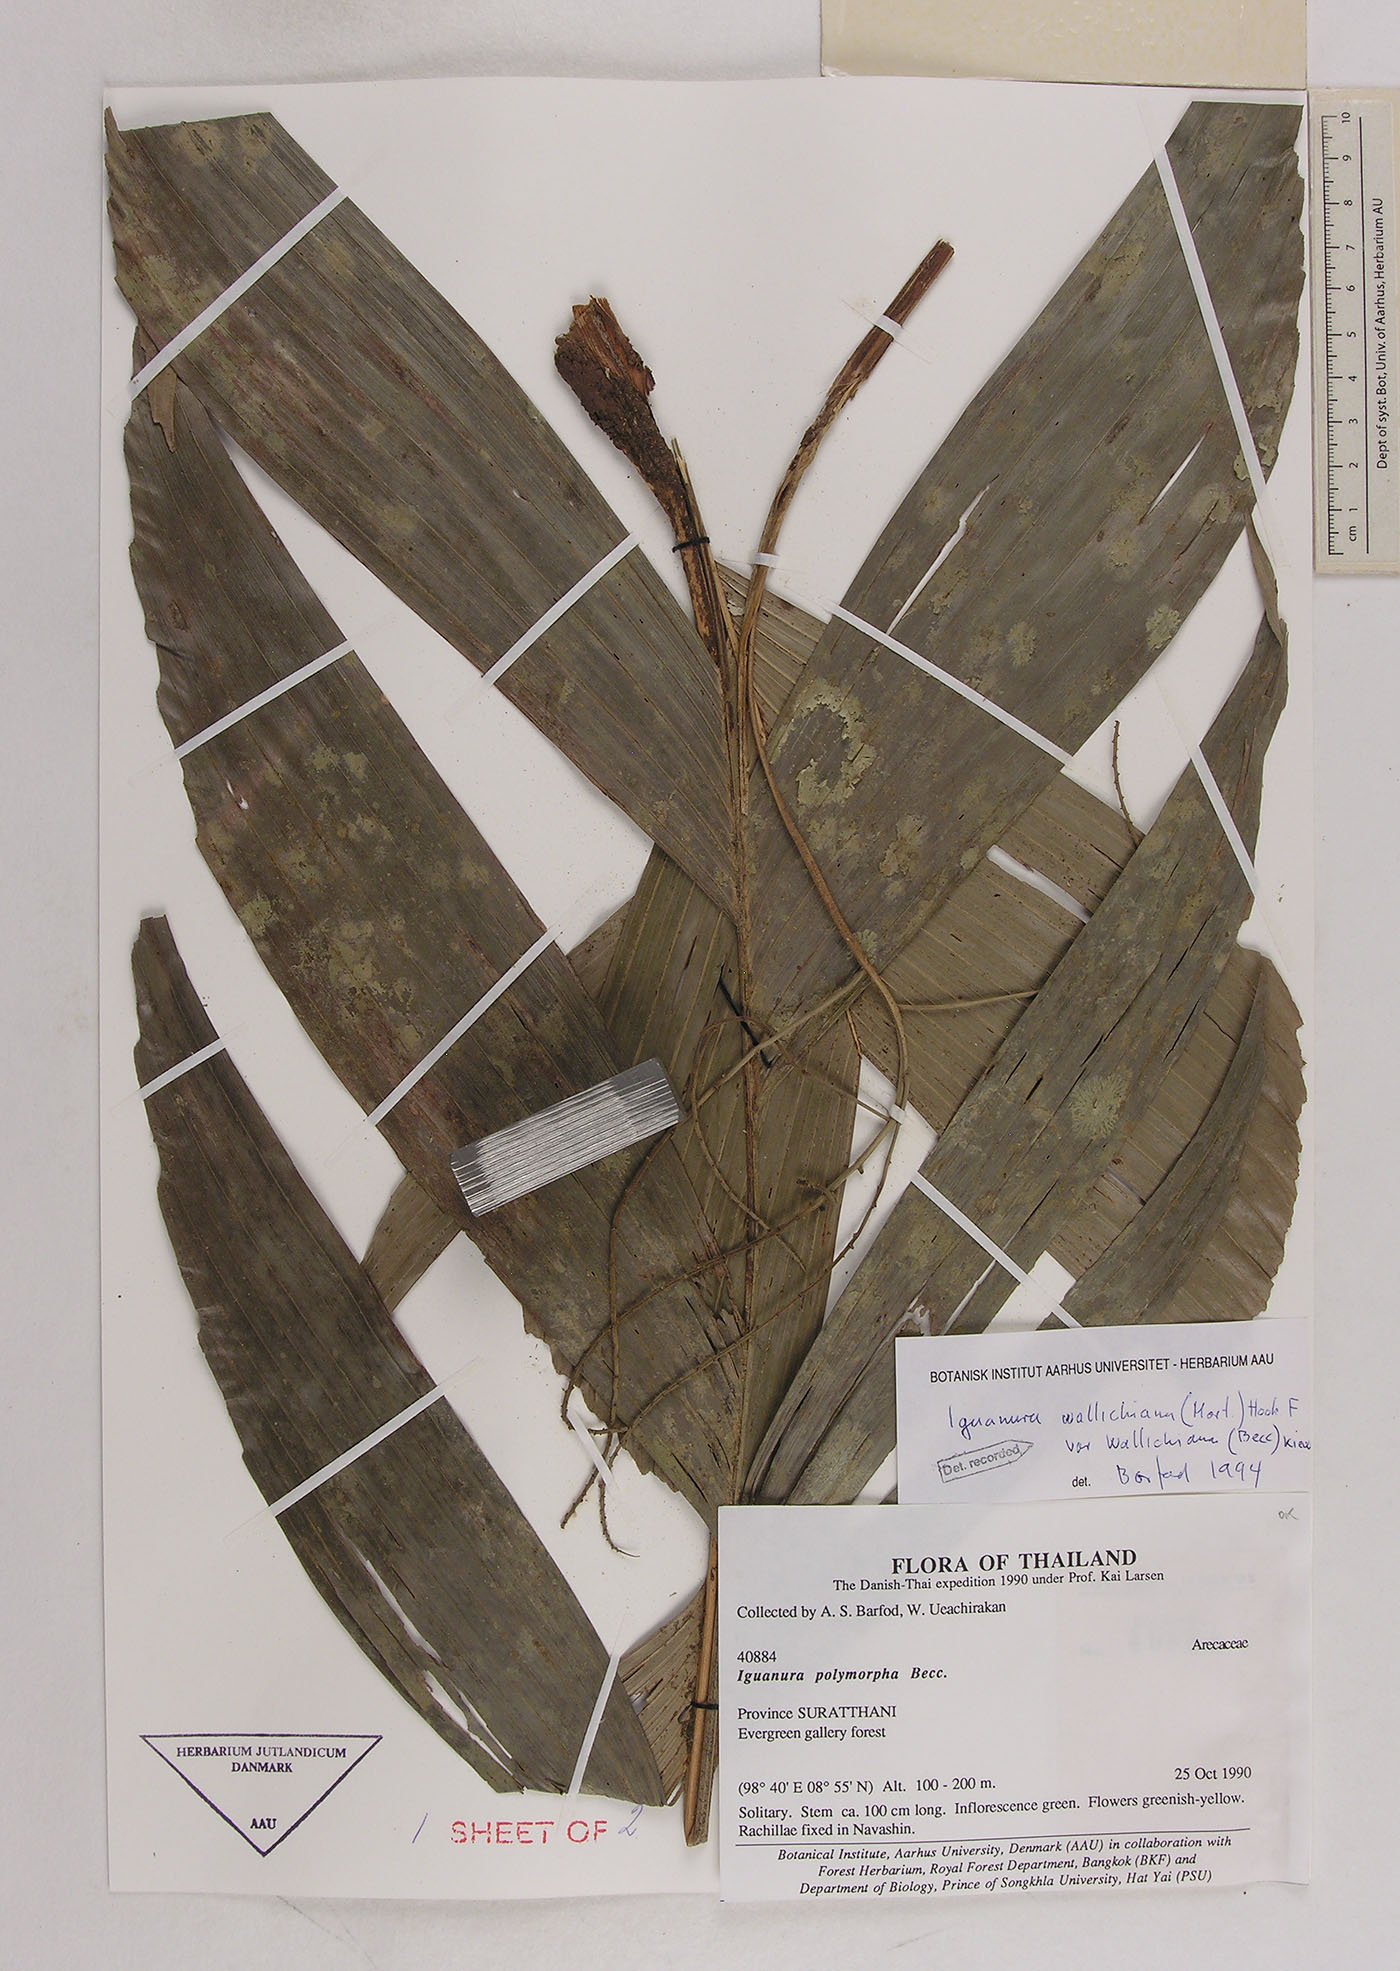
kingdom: Plantae
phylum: Tracheophyta
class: Liliopsida
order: Arecales
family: Arecaceae
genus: Iguanura
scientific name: Iguanura wallichiana
